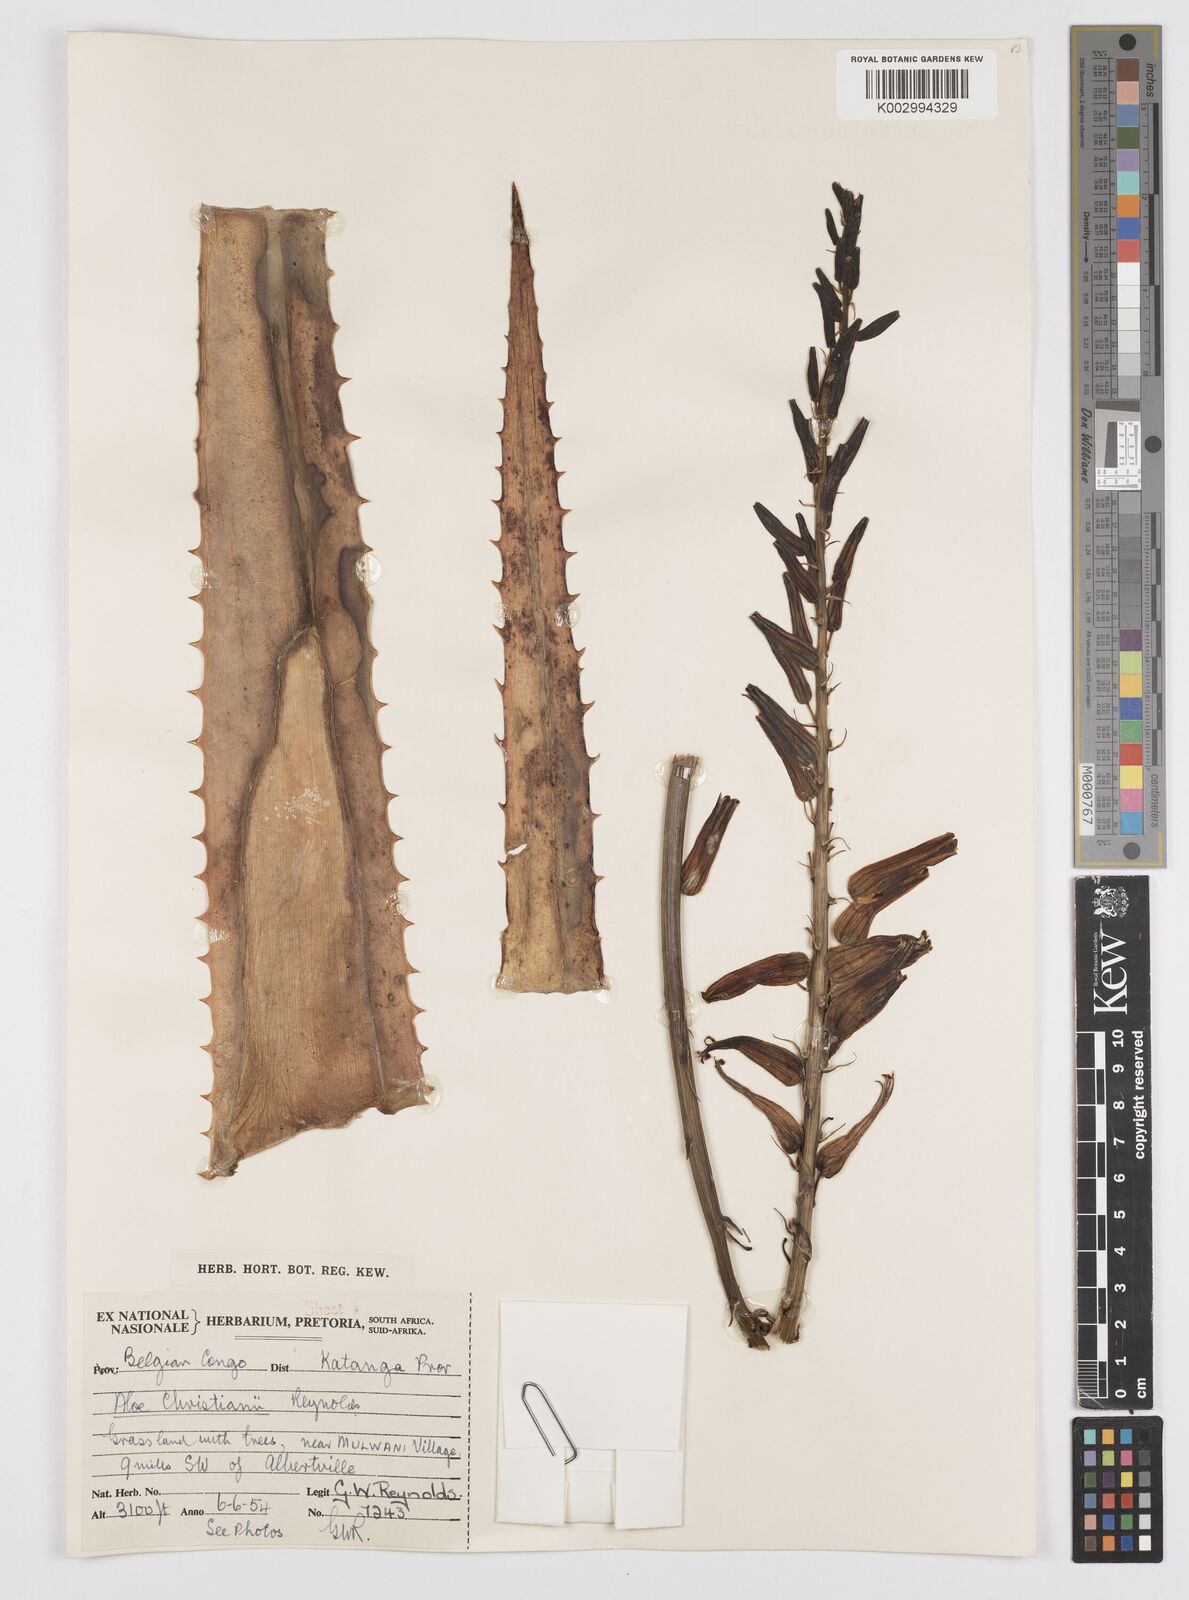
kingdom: Plantae
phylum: Tracheophyta
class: Liliopsida
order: Asparagales
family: Asphodelaceae
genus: Aloe
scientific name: Aloe christianii
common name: Basil christian's aloe
